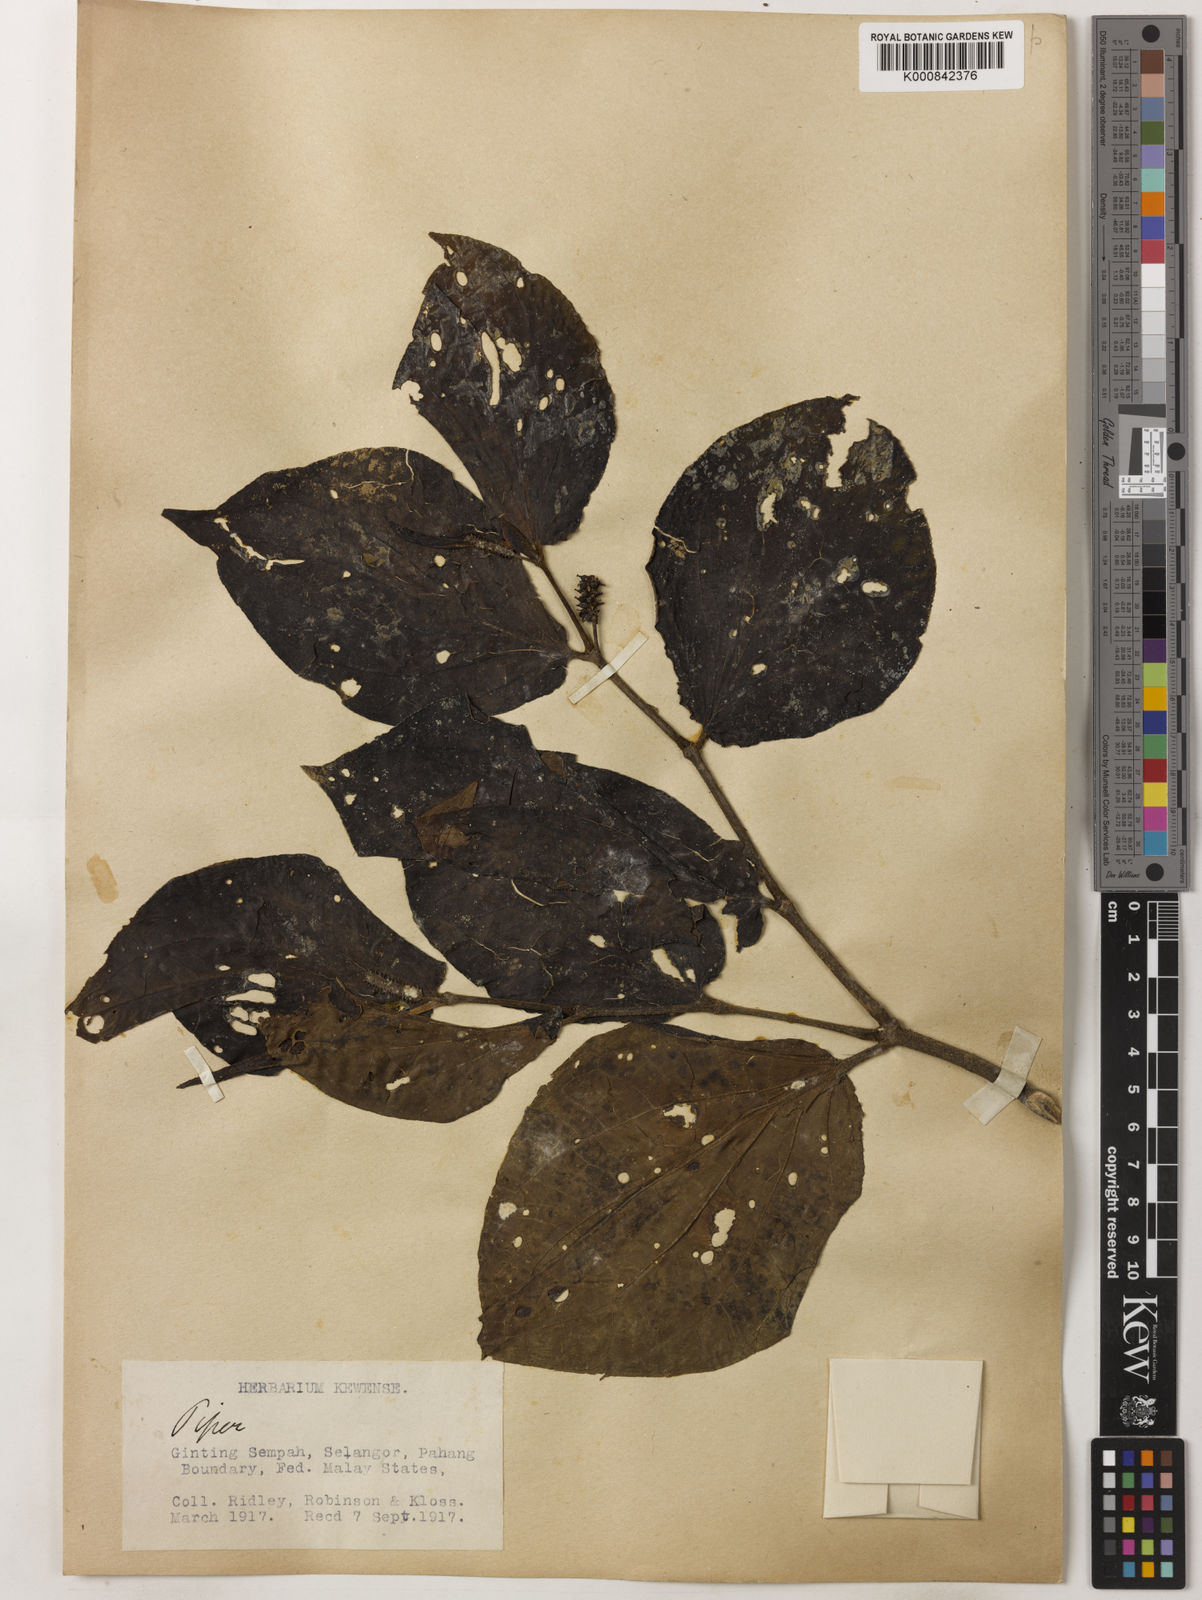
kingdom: Plantae
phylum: Tracheophyta
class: Magnoliopsida
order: Piperales
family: Piperaceae
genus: Piper
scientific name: Piper rostratum
